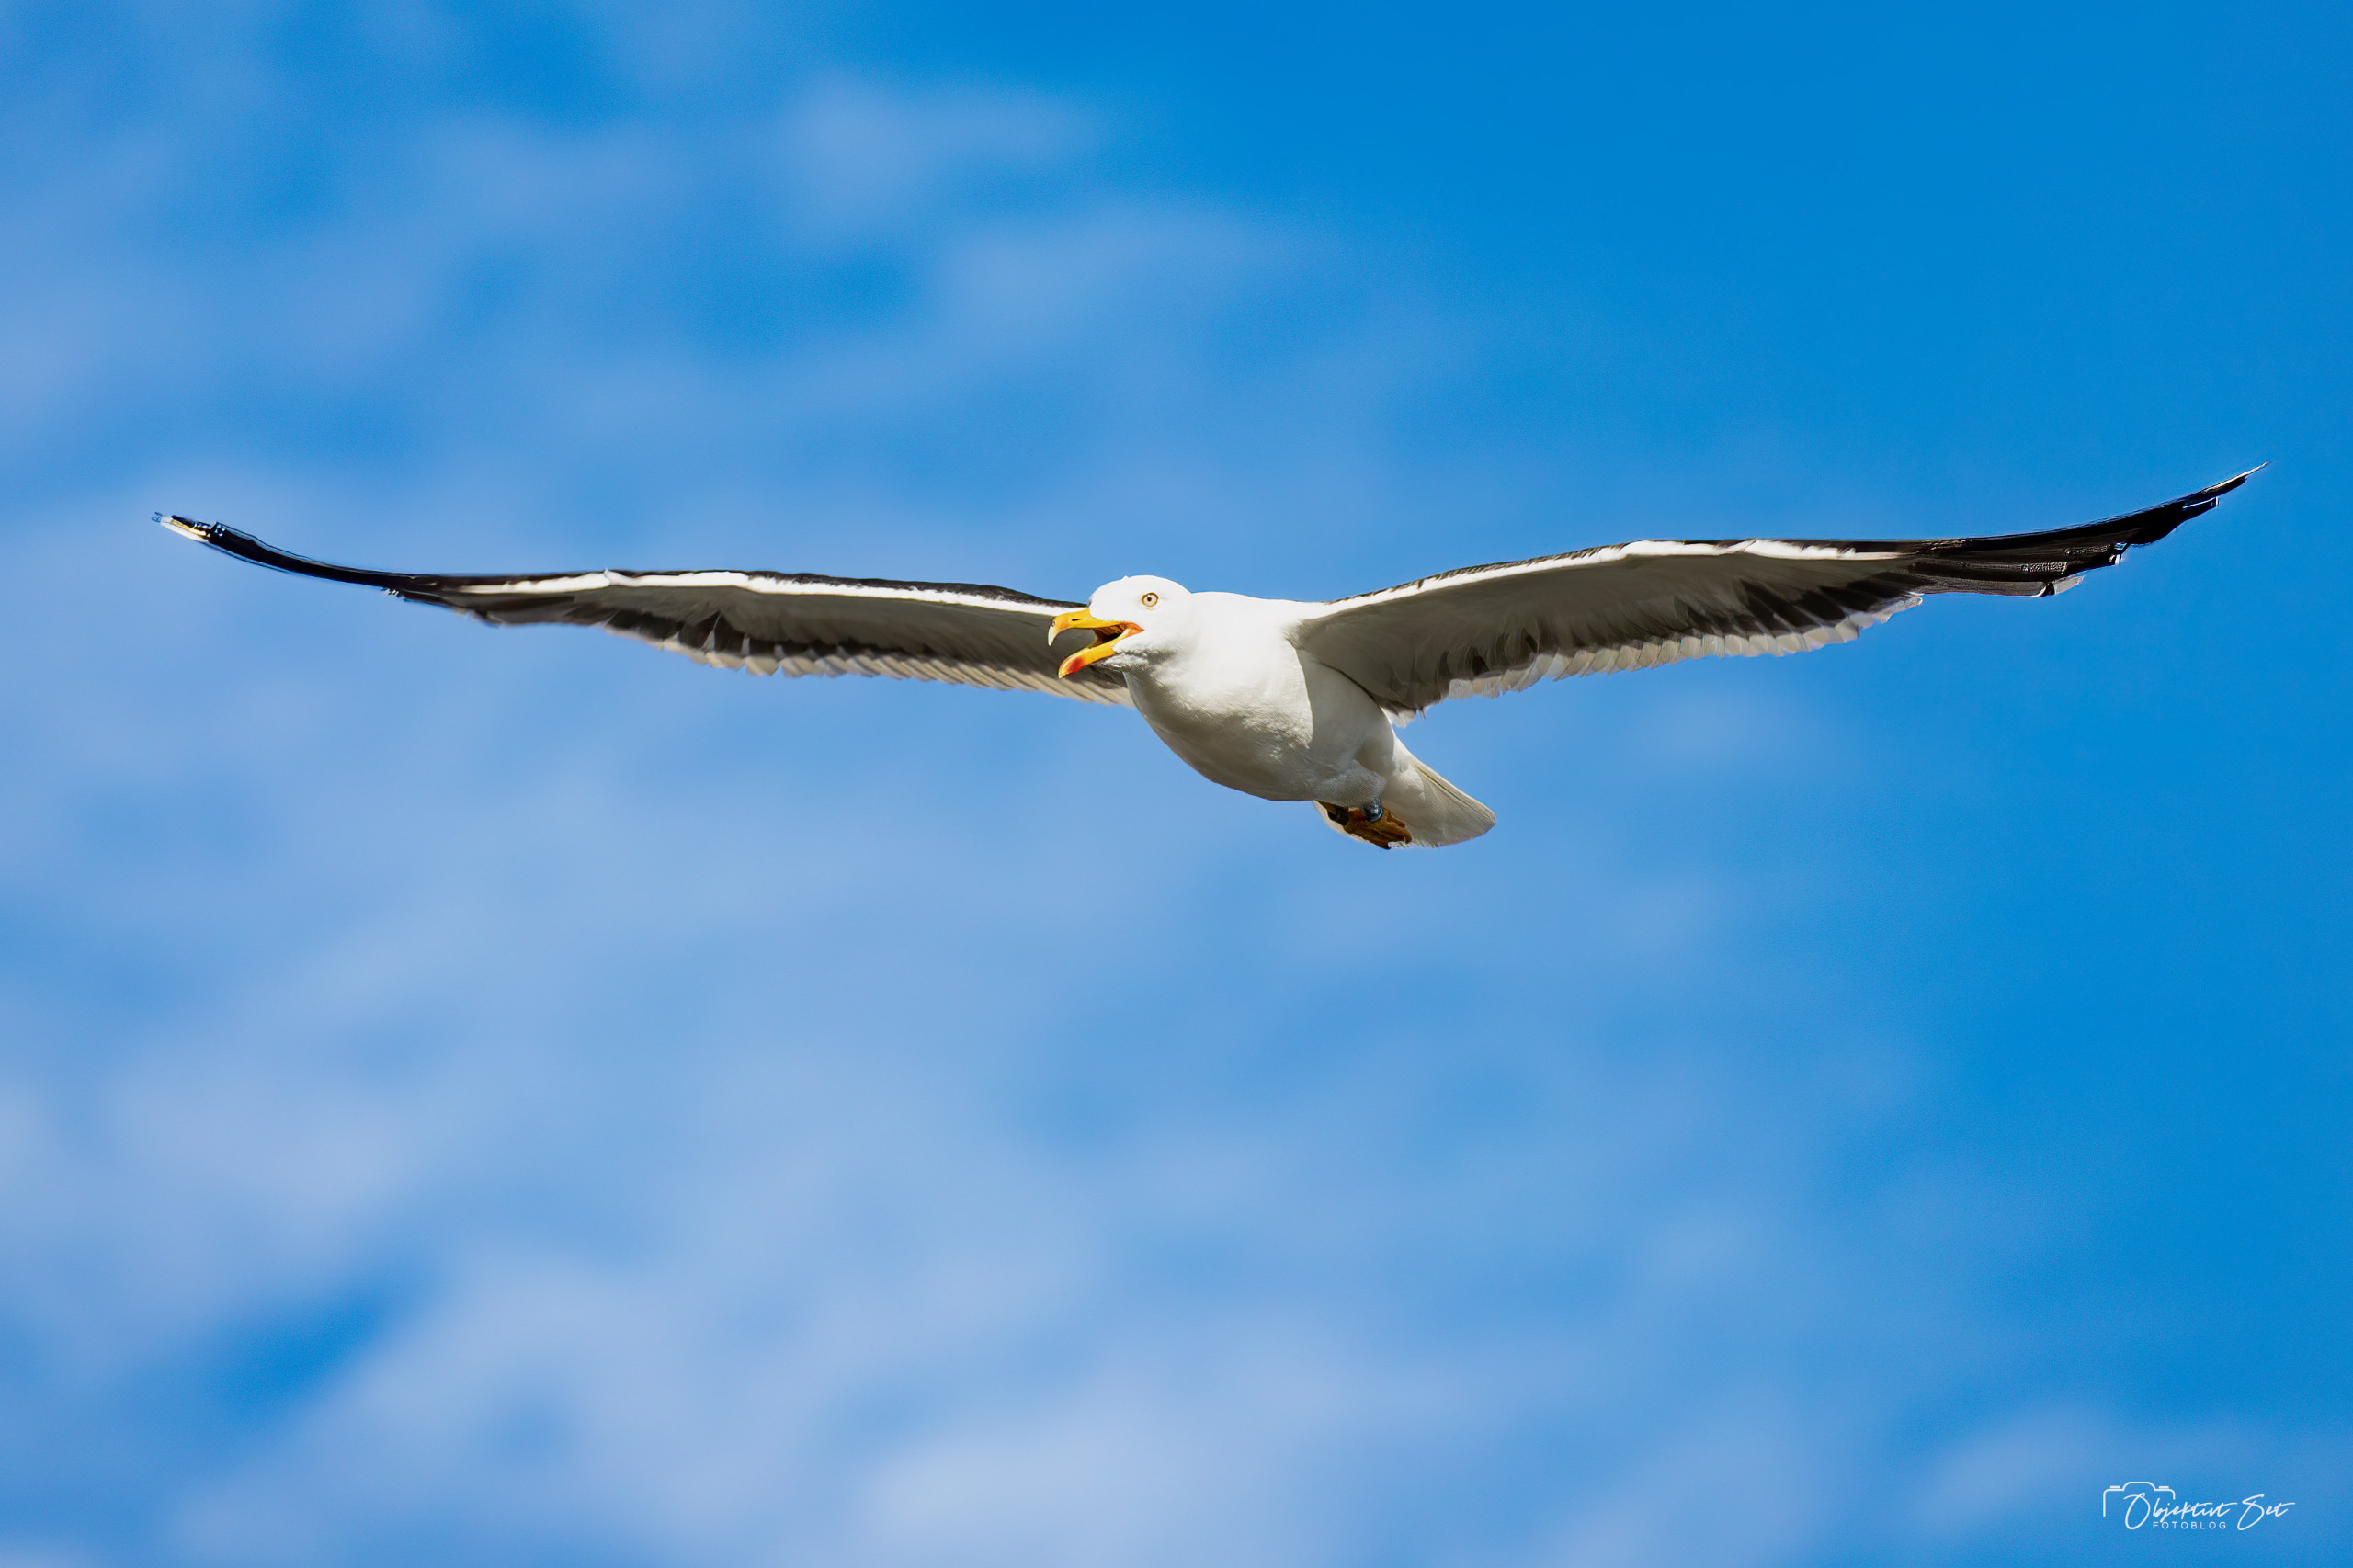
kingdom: Animalia
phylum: Chordata
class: Aves
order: Charadriiformes
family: Laridae
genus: Larus
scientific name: Larus fuscus
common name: Sildemåge
